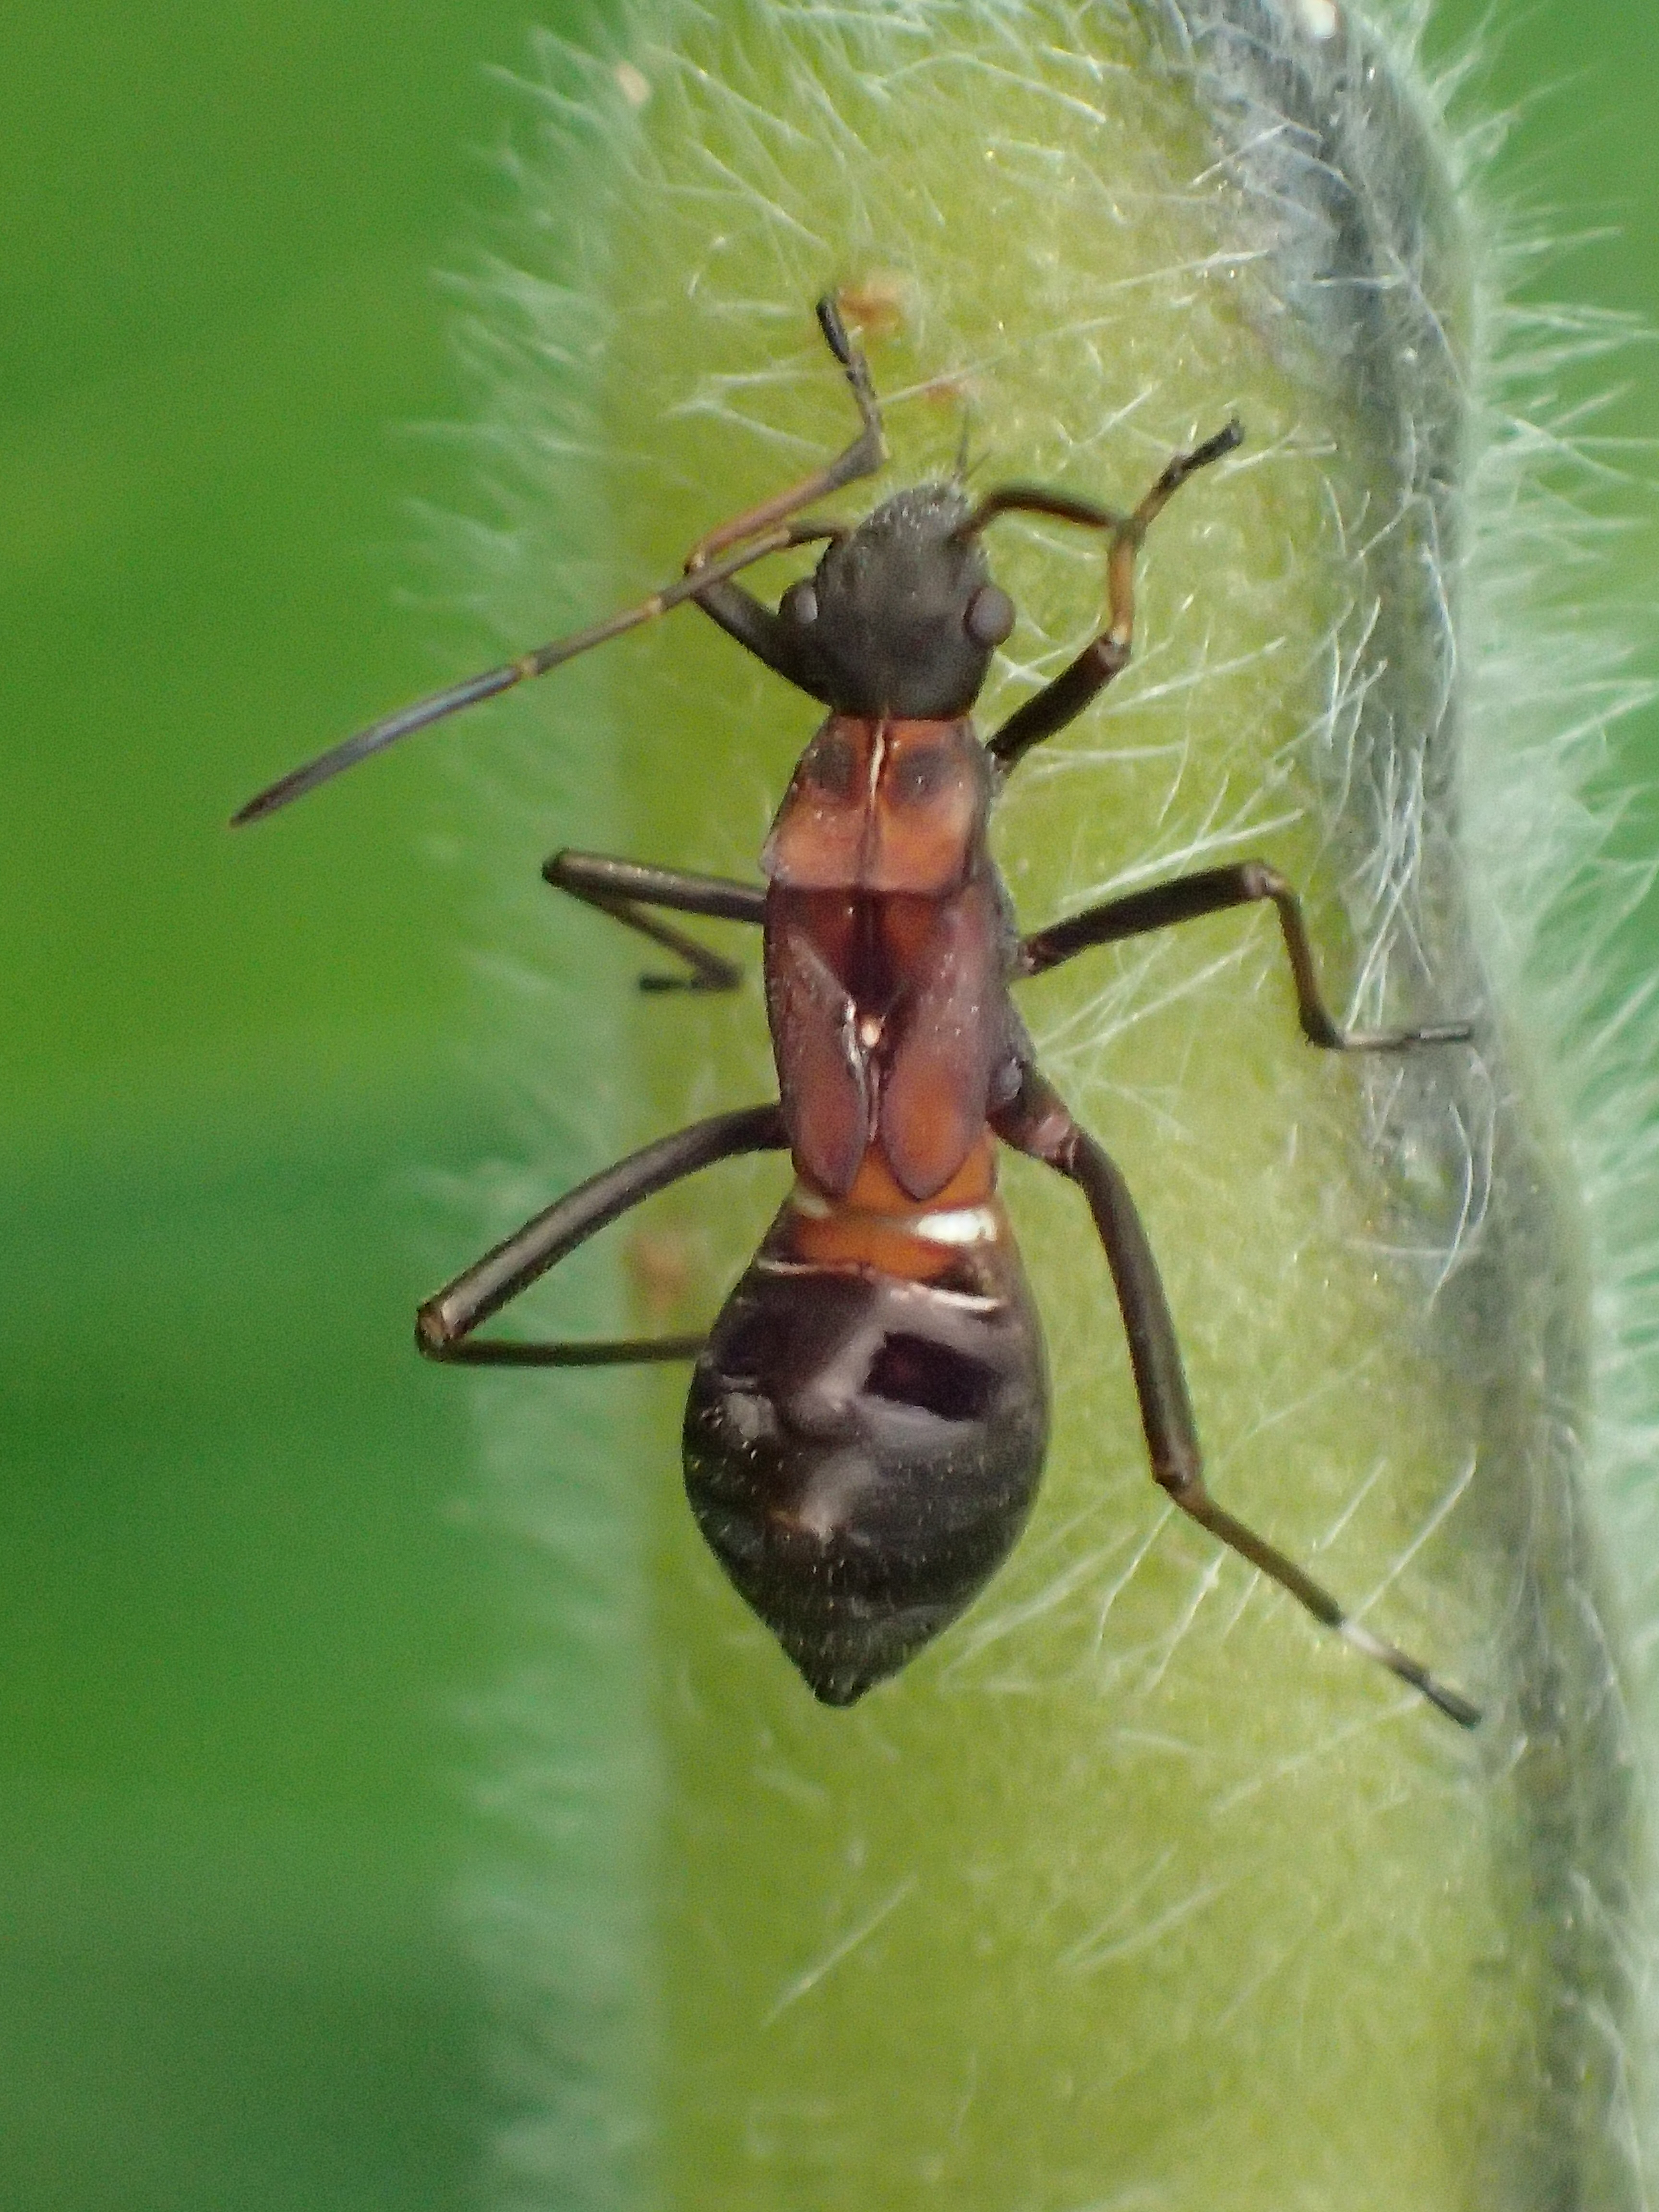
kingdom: Animalia
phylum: Arthropoda
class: Insecta
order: Hemiptera
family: Miridae
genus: Myrmecoris
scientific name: Myrmecoris gracilis
